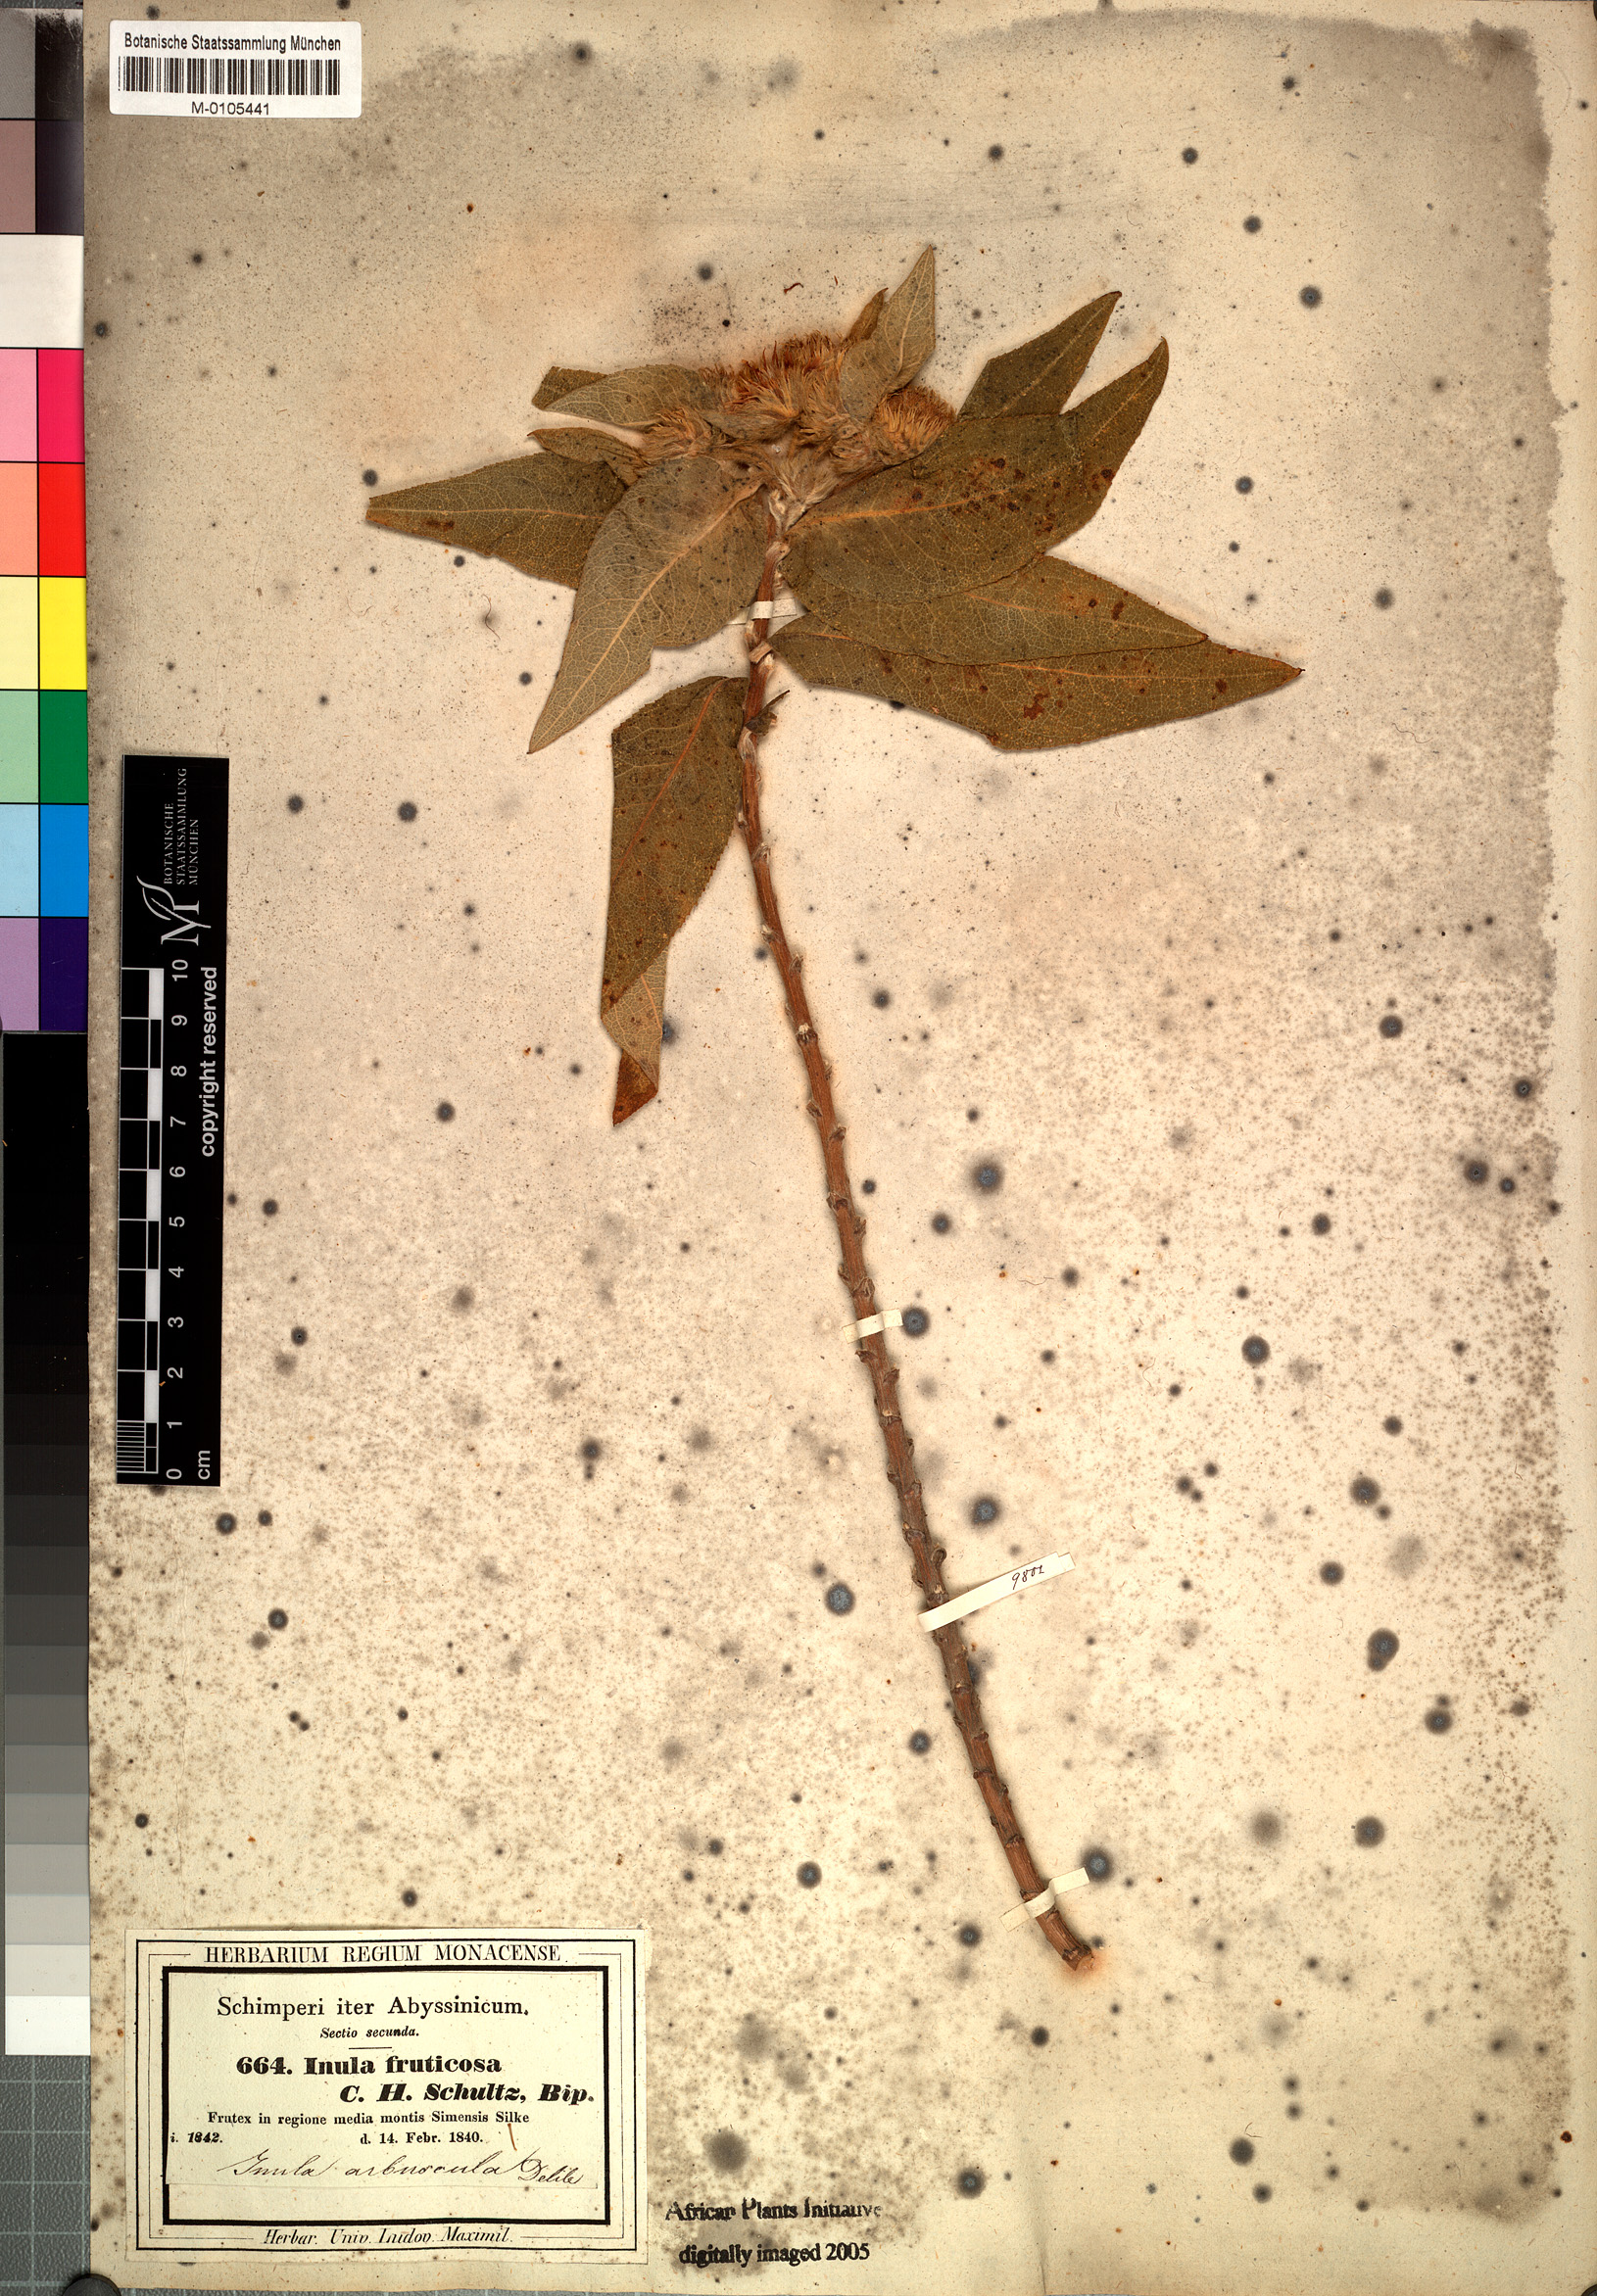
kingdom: Plantae
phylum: Tracheophyta
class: Magnoliopsida
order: Asterales
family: Asteraceae
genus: Inula
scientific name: Inula arbuscula
